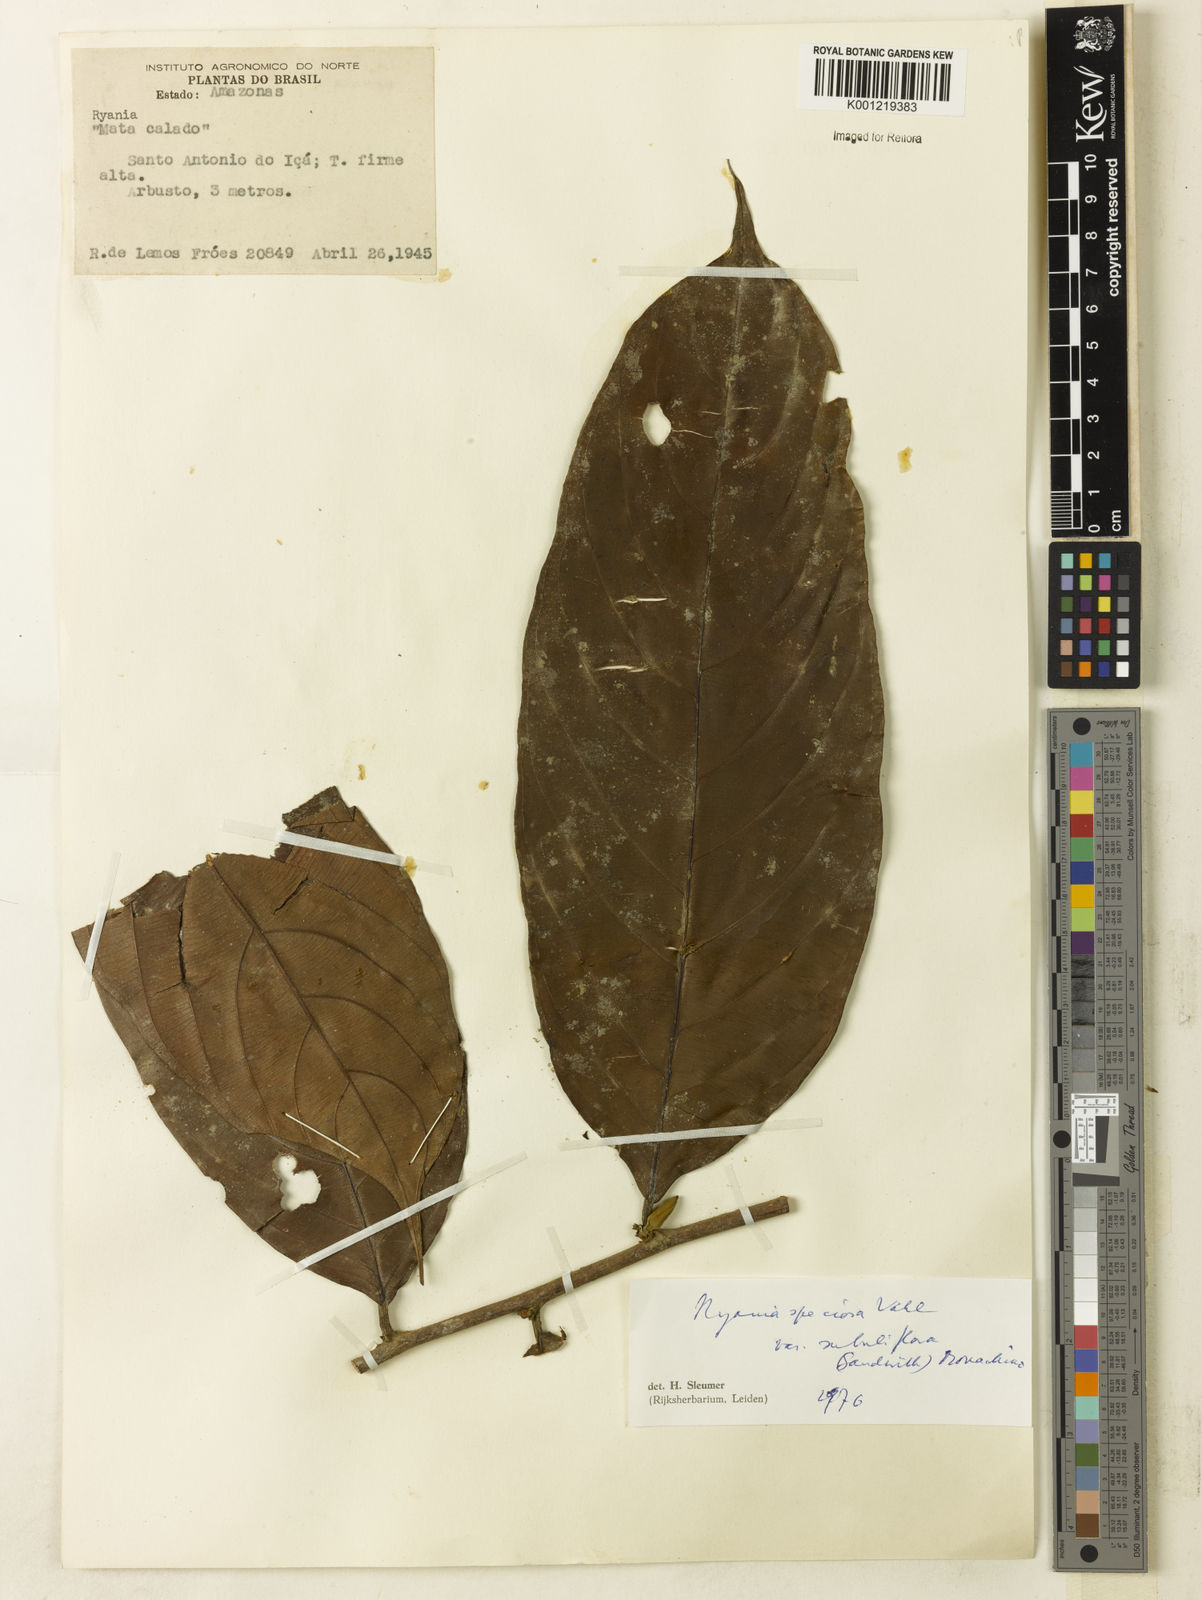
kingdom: Plantae
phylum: Tracheophyta
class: Magnoliopsida
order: Malpighiales
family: Salicaceae
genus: Ryania
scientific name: Ryania speciosa
